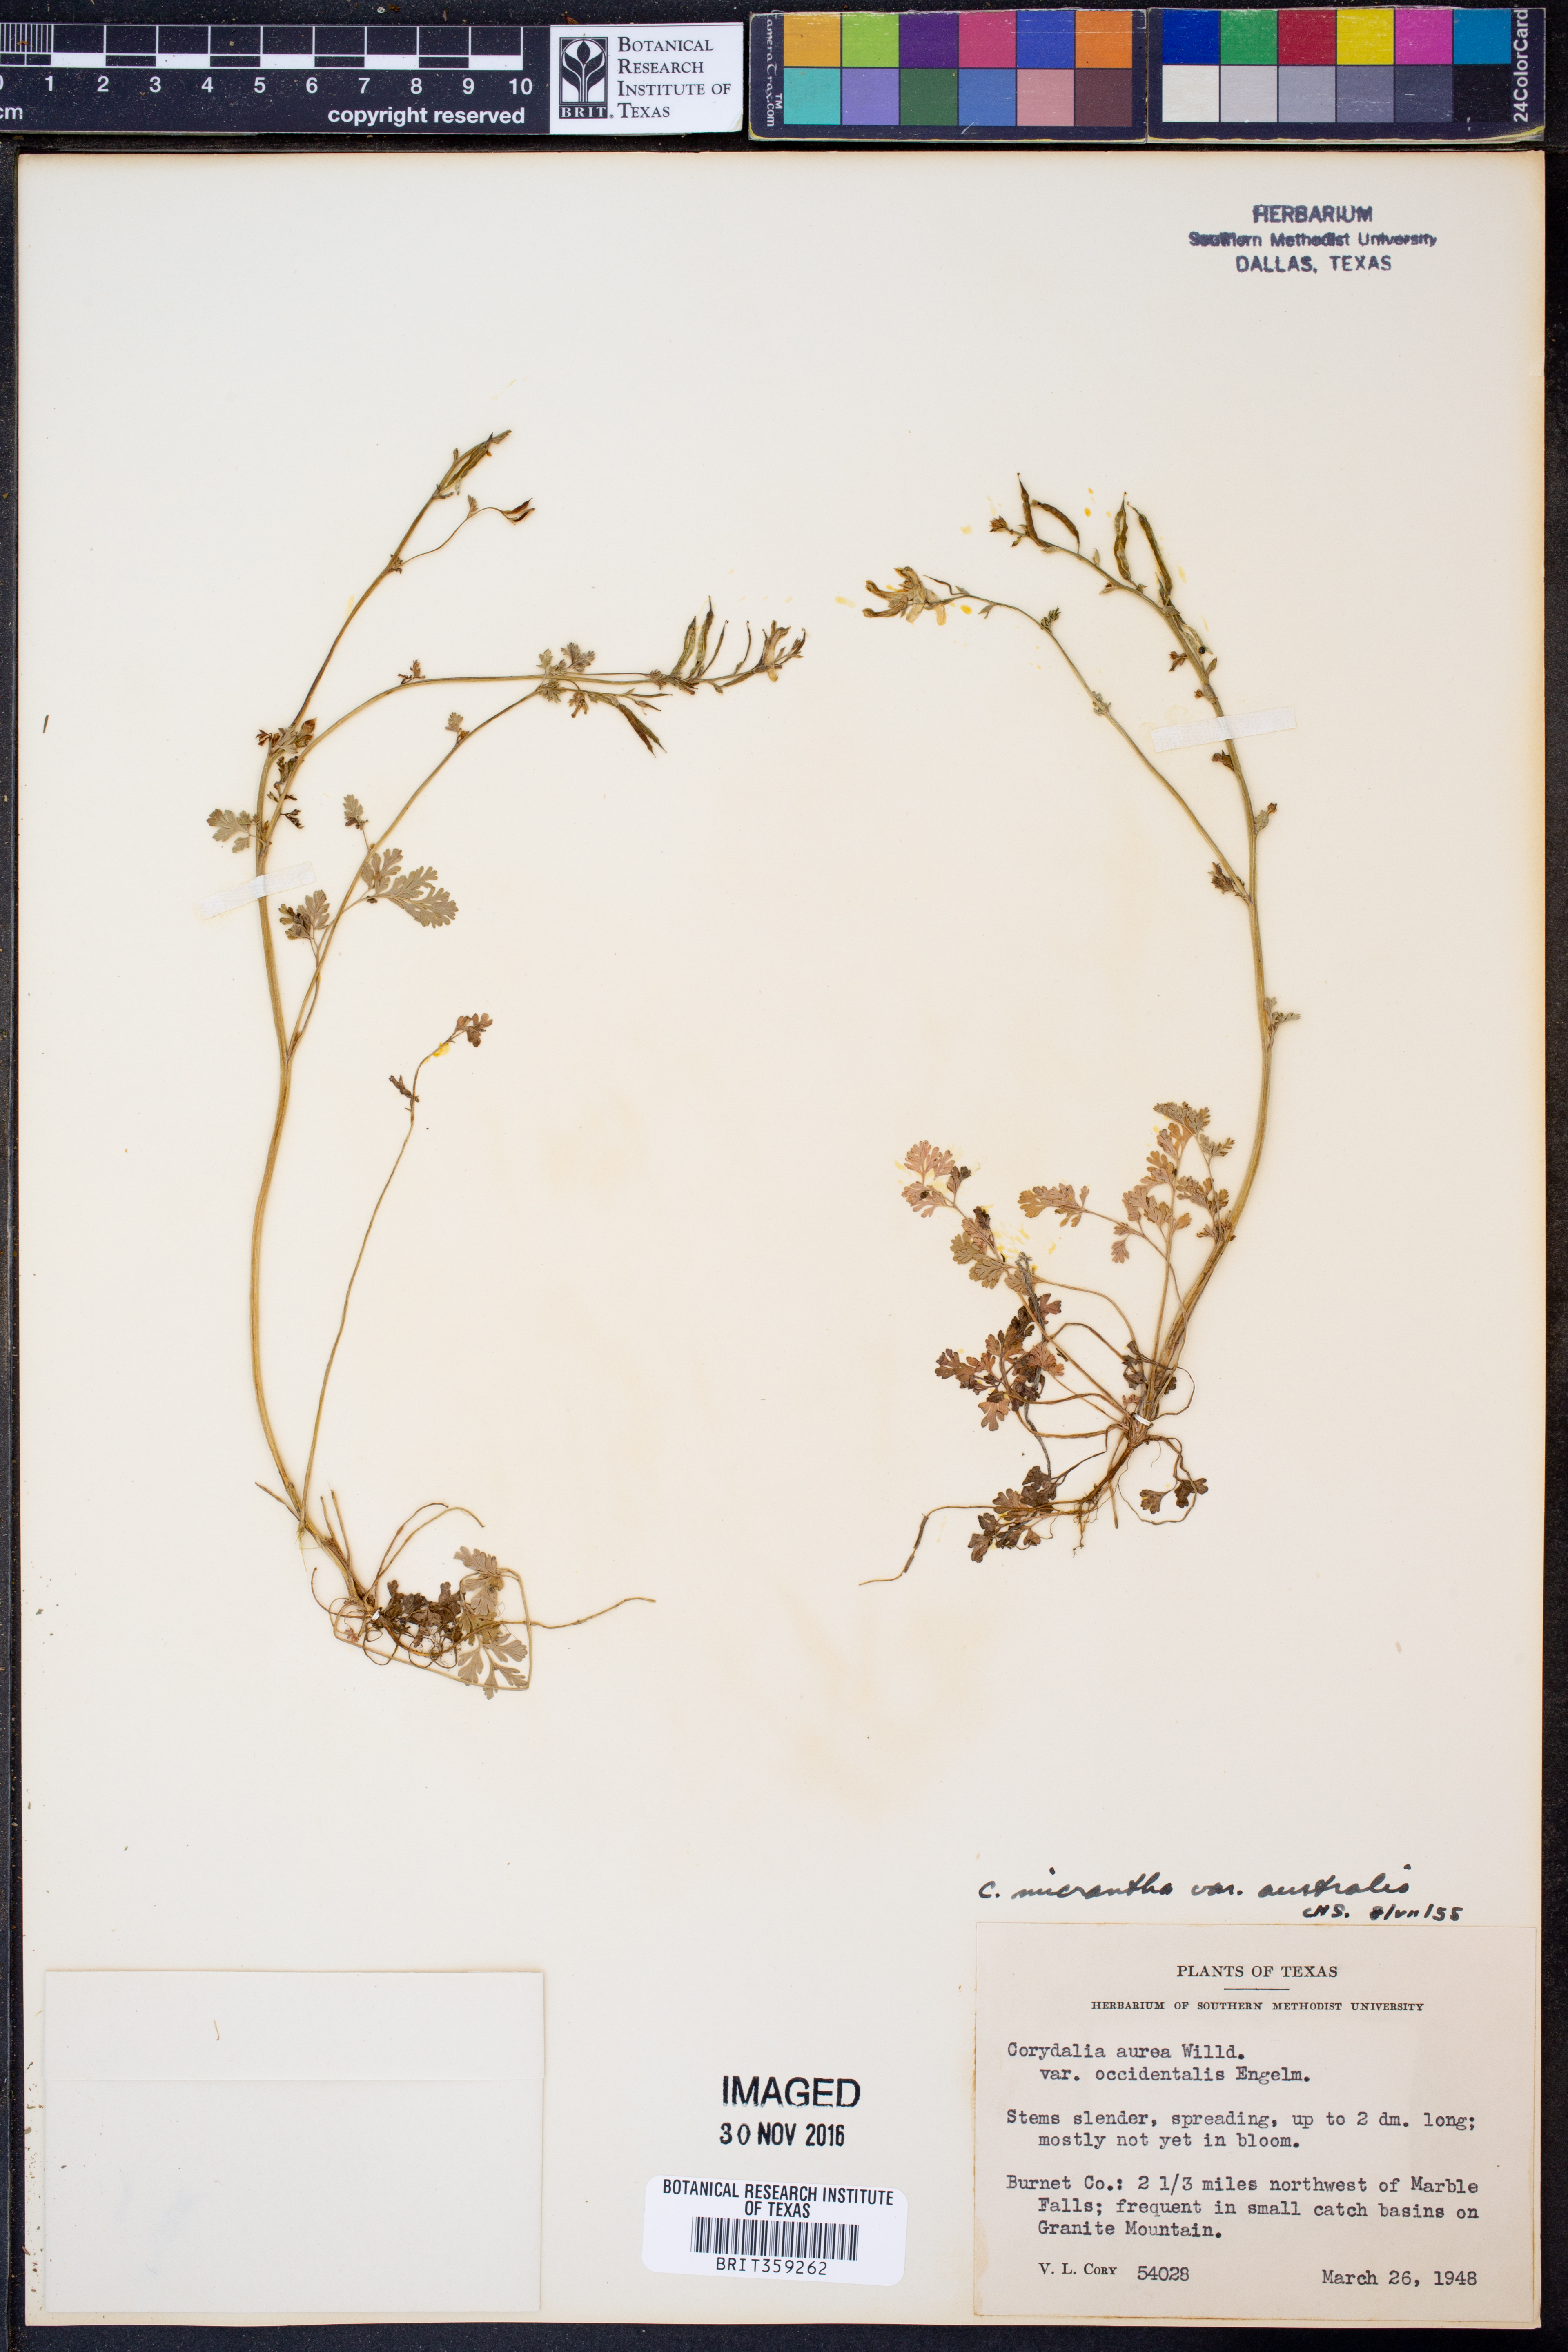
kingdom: Plantae
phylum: Tracheophyta
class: Magnoliopsida
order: Ranunculales
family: Papaveraceae
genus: Corydalis
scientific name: Corydalis micrantha
